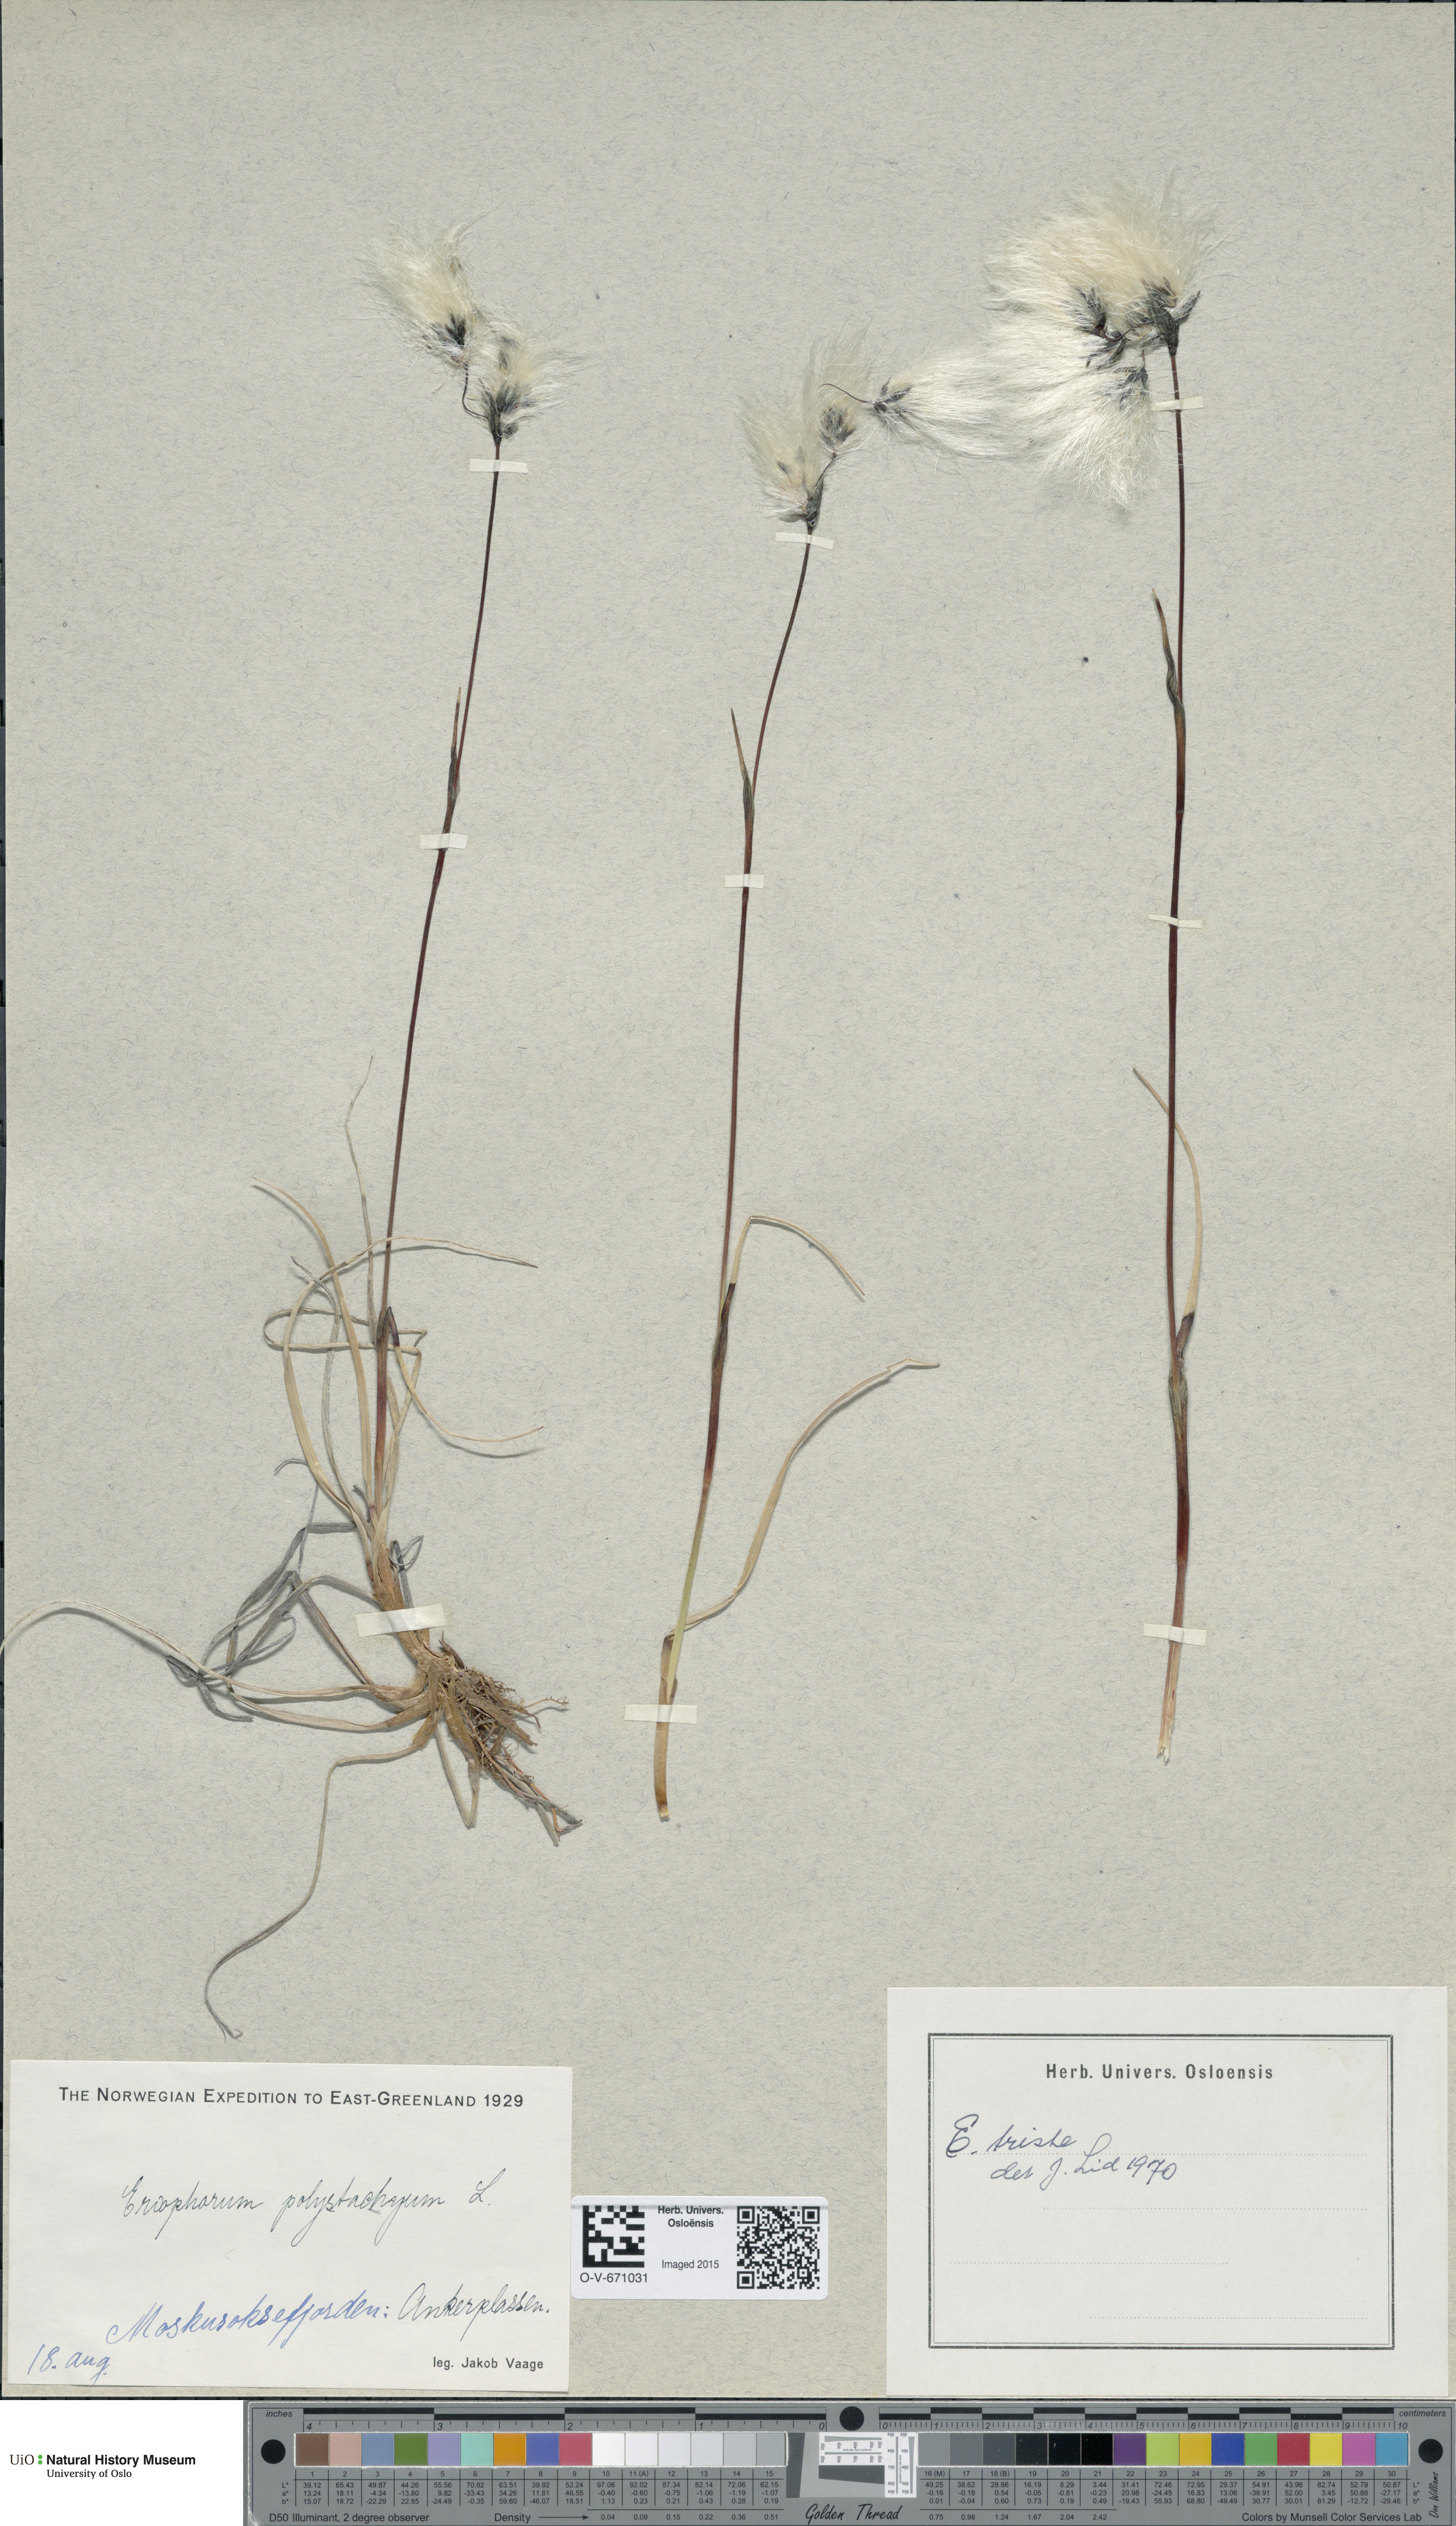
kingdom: Plantae
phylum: Tracheophyta
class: Liliopsida
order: Poales
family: Cyperaceae
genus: Eriophorum
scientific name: Eriophorum angustifolium
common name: Common cottongrass
